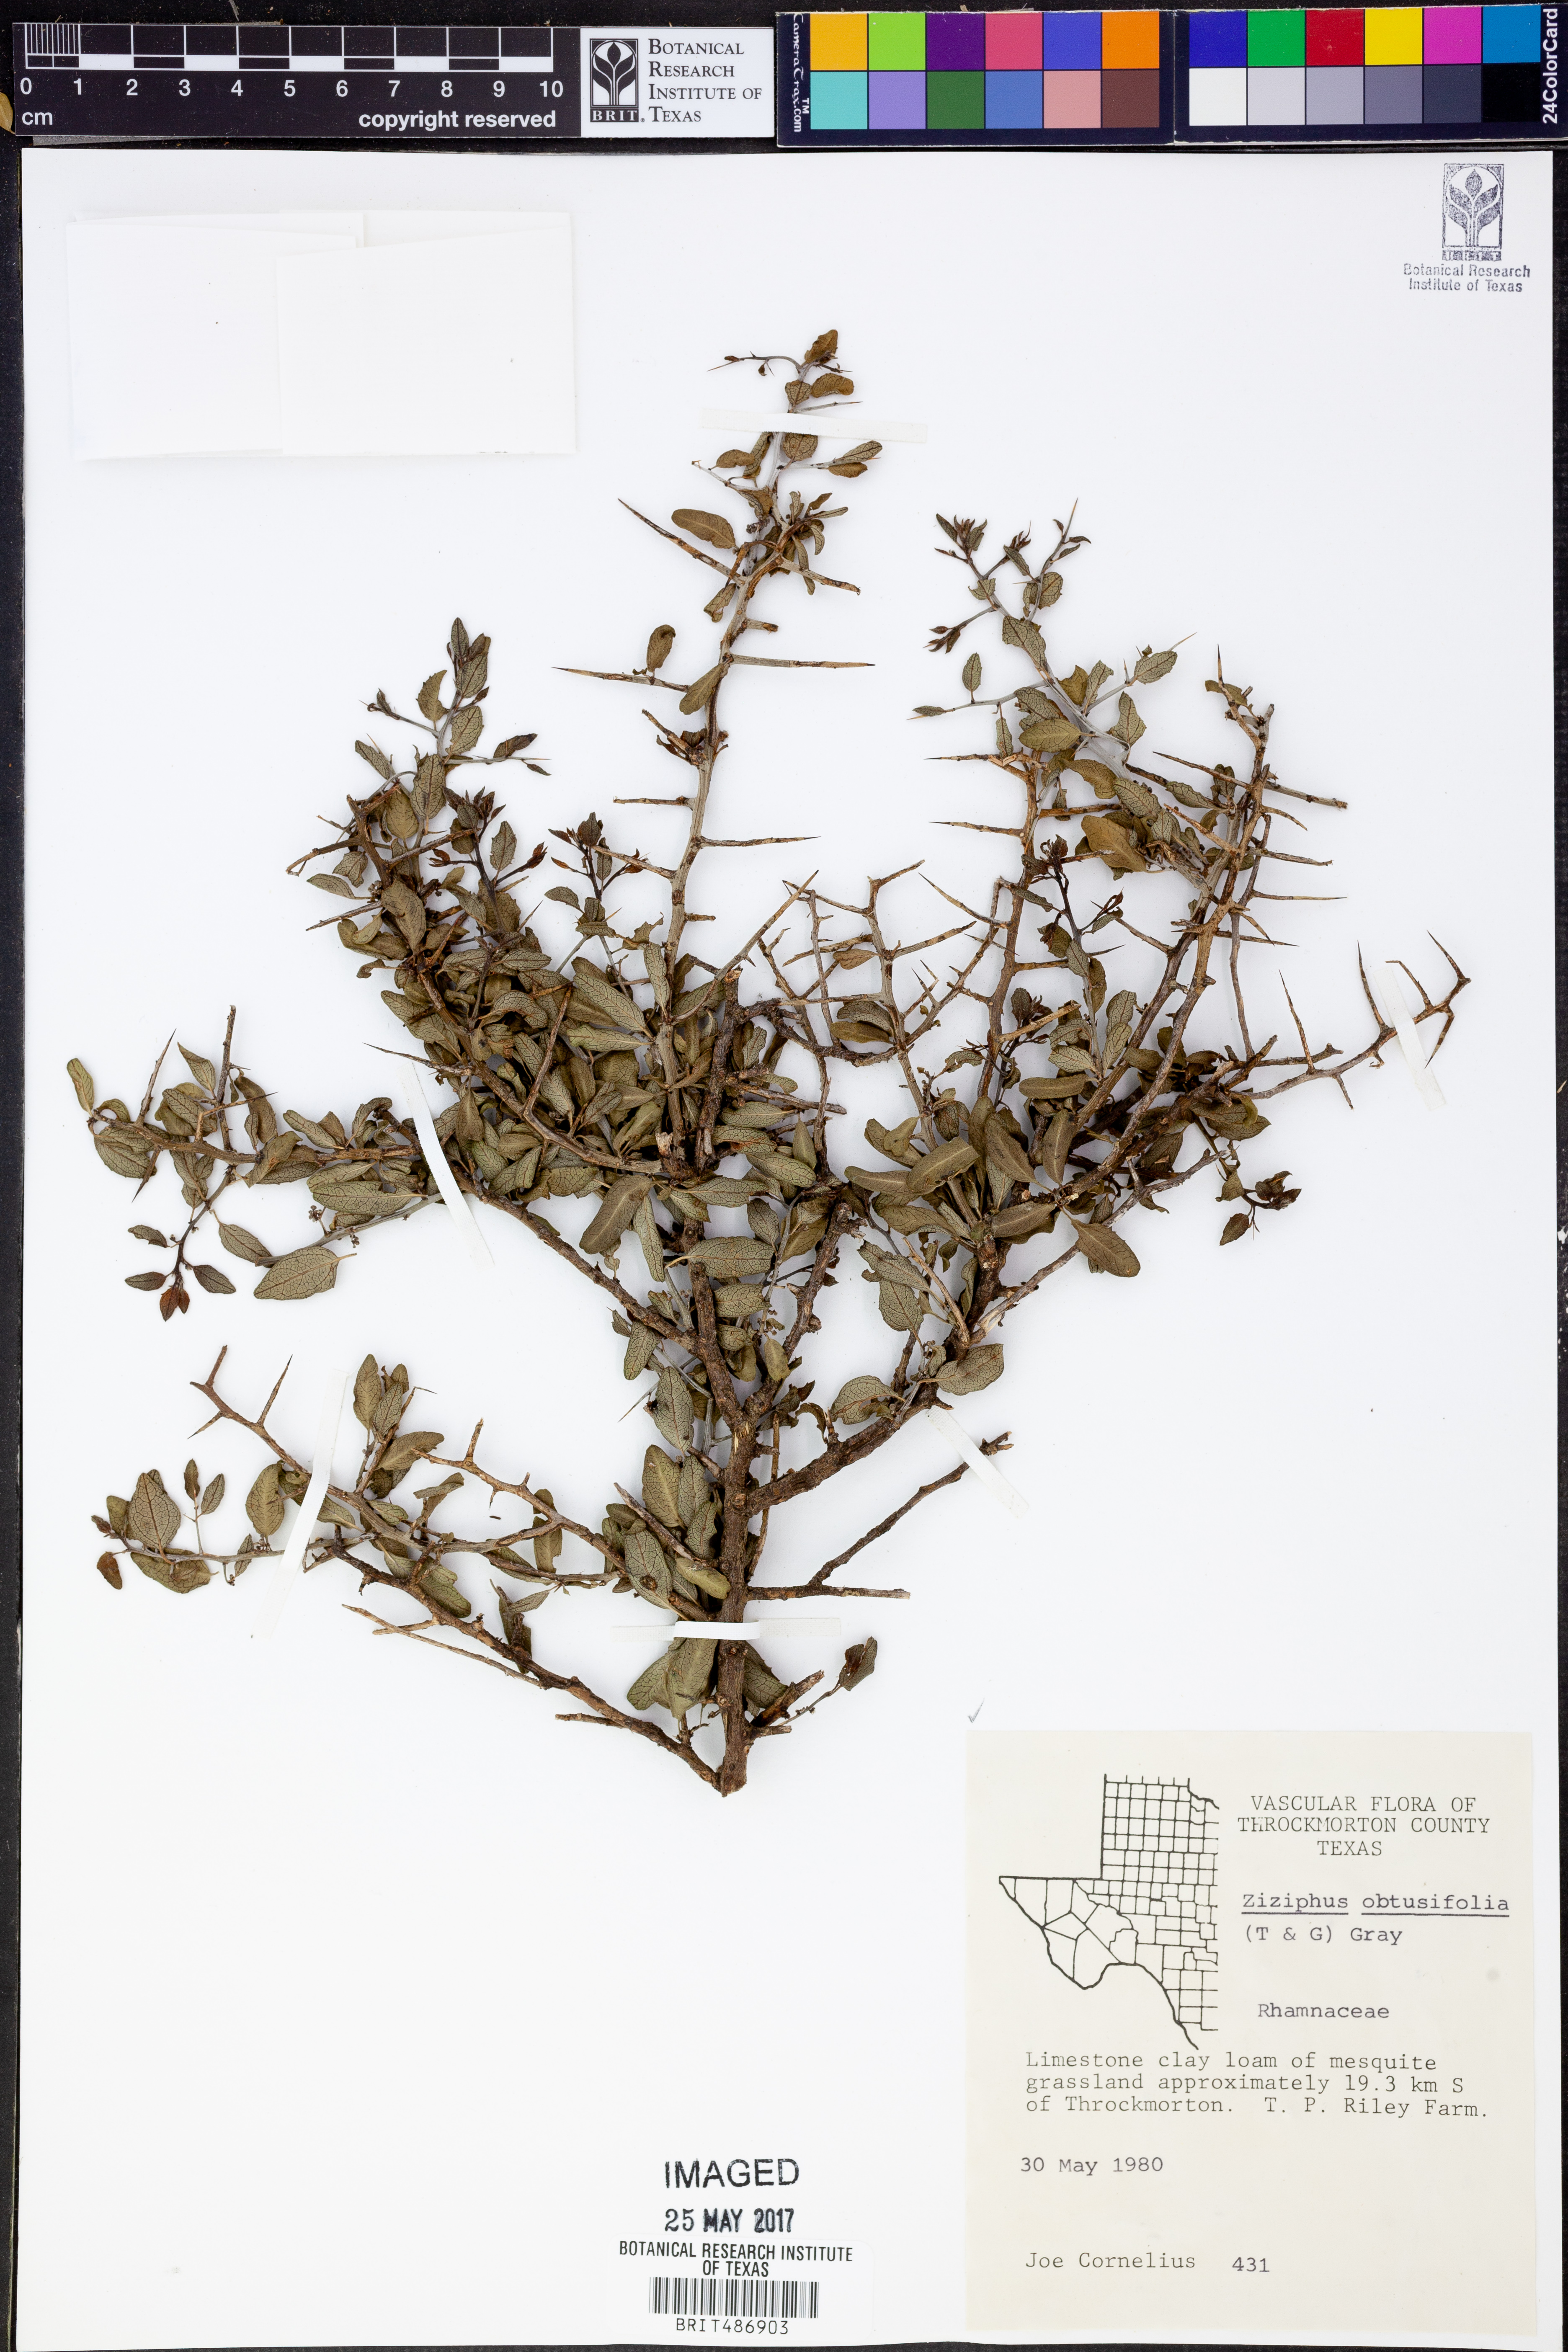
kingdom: Plantae
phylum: Tracheophyta
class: Magnoliopsida
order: Rosales
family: Rhamnaceae
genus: Sarcomphalus
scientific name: Sarcomphalus obtusifolius
